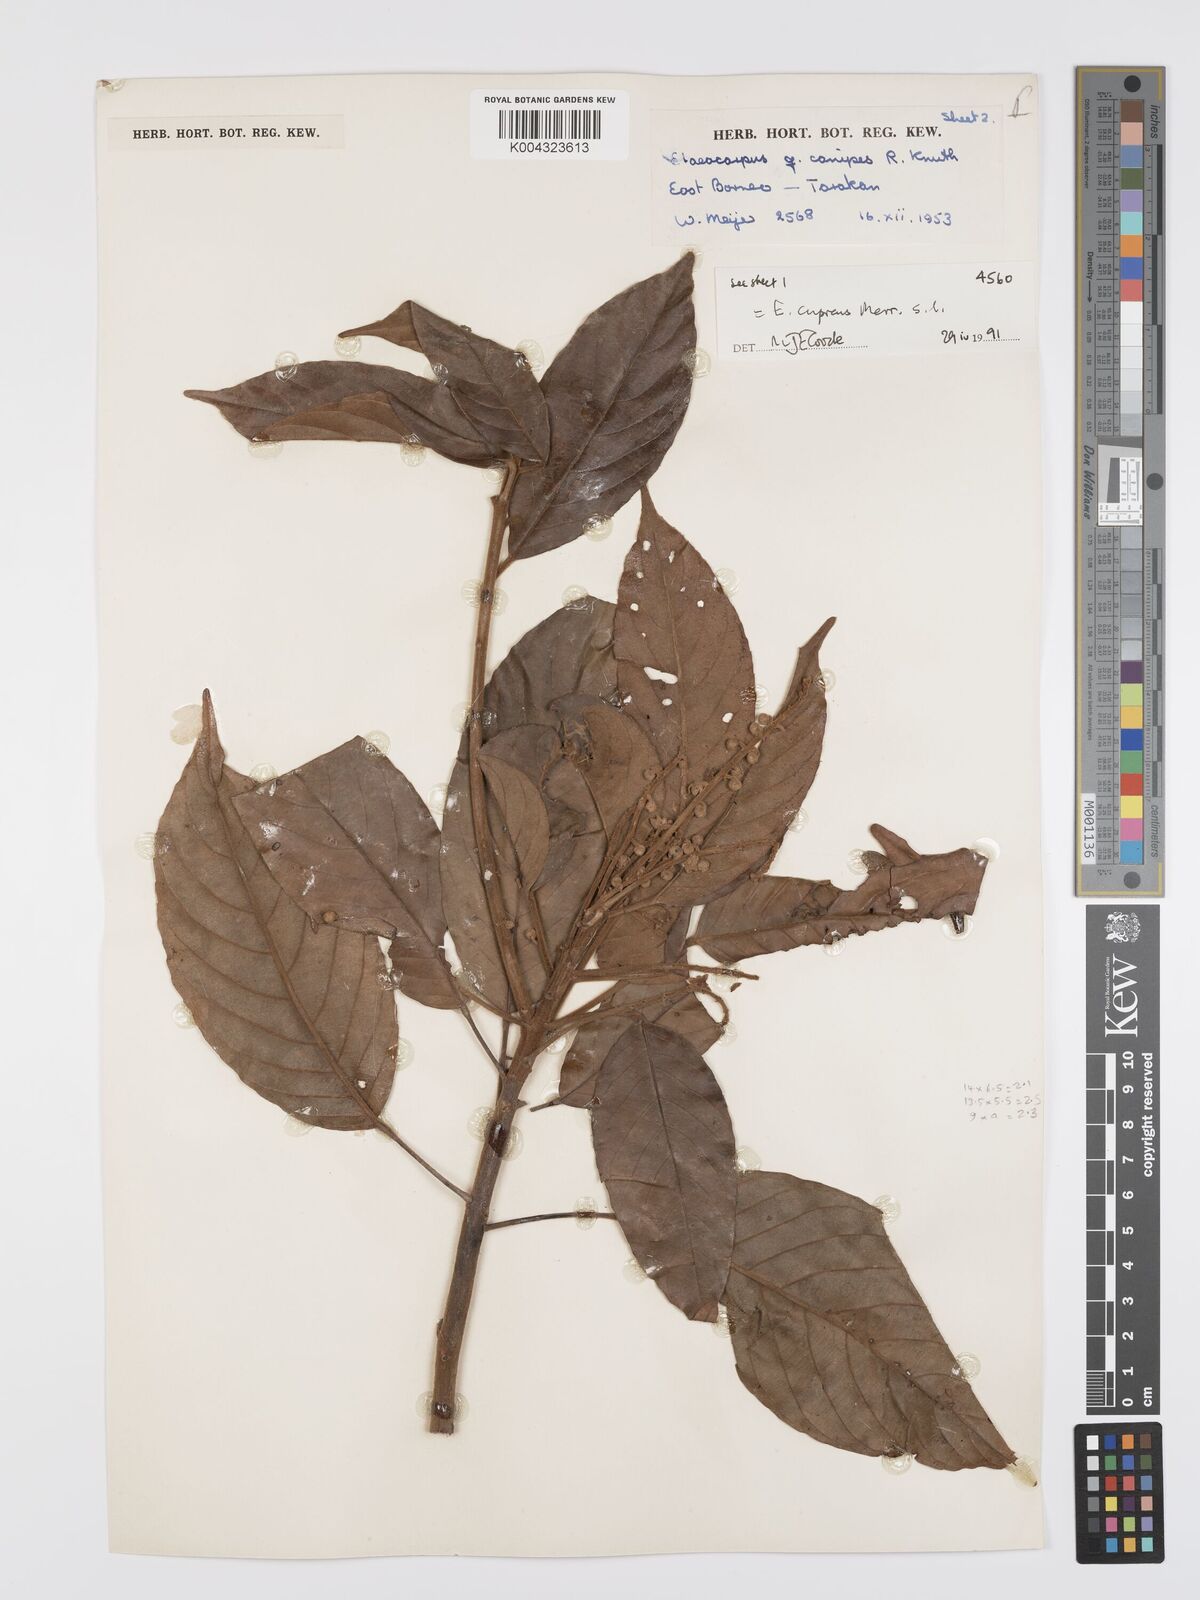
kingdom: Plantae
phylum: Tracheophyta
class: Magnoliopsida
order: Oxalidales
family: Elaeocarpaceae
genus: Elaeocarpus
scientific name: Elaeocarpus cupreus
